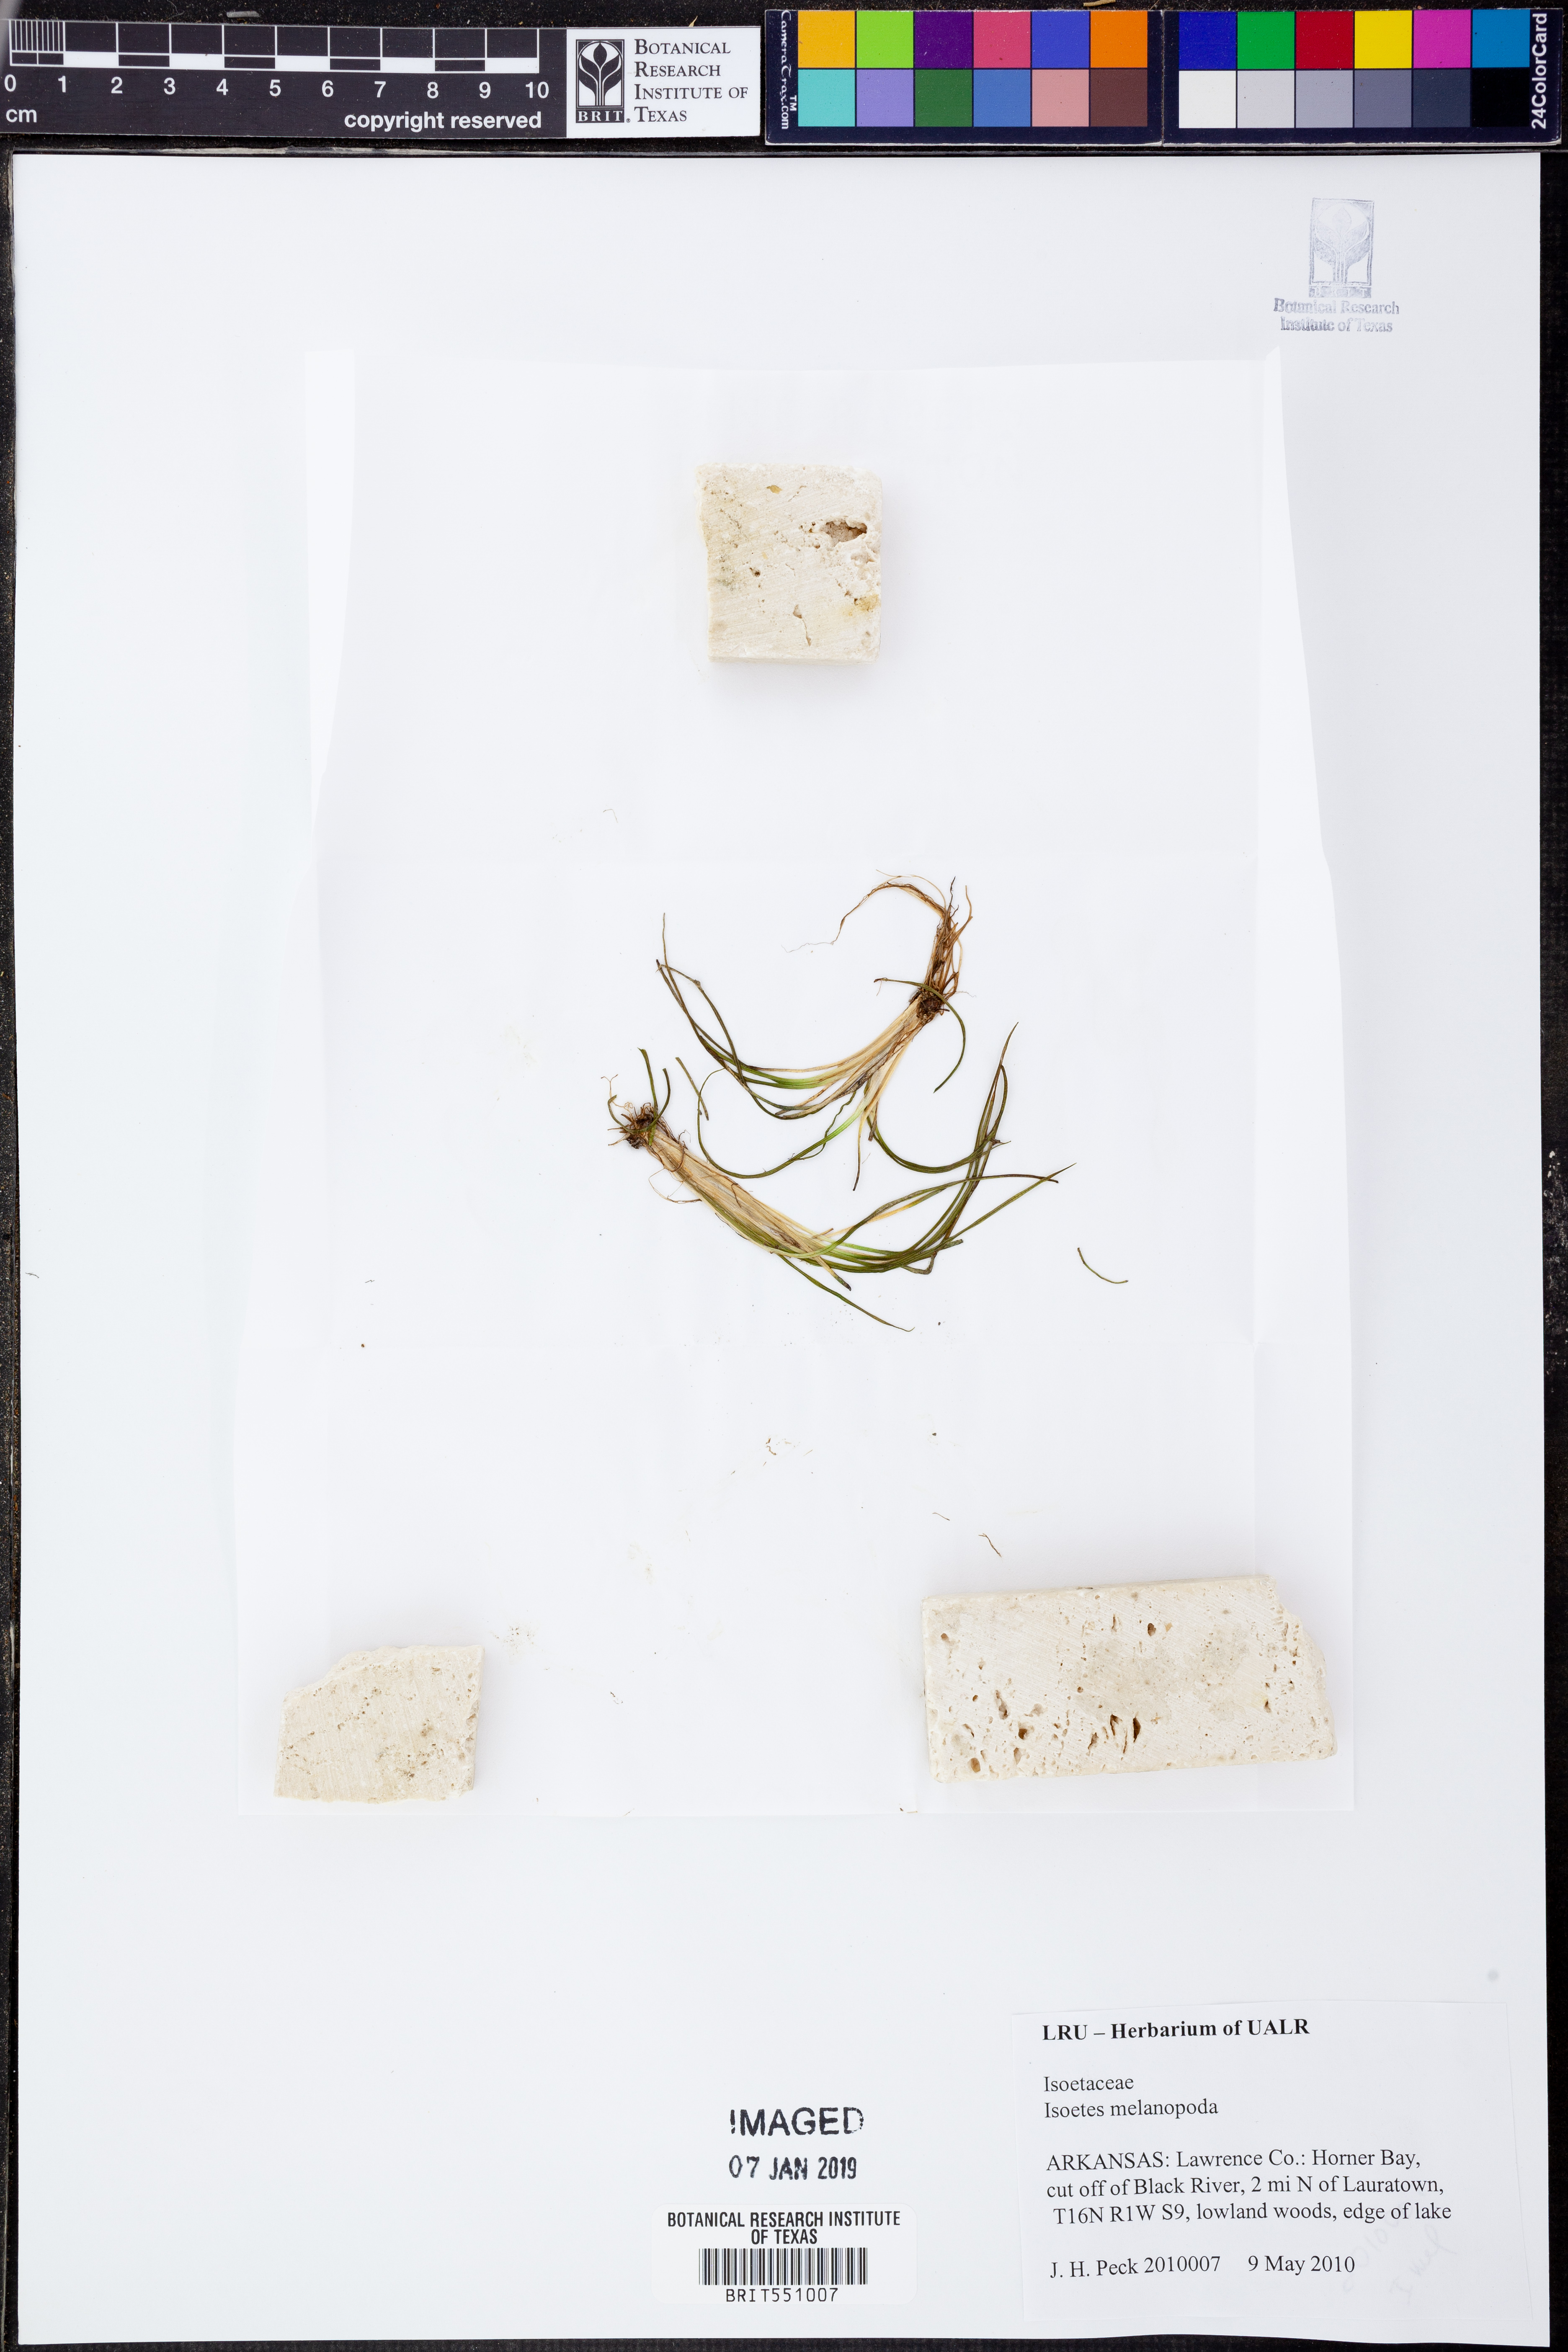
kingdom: Plantae
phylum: Tracheophyta
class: Lycopodiopsida
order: Isoetales
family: Isoetaceae
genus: Isoetes
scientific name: Isoetes melanopoda
